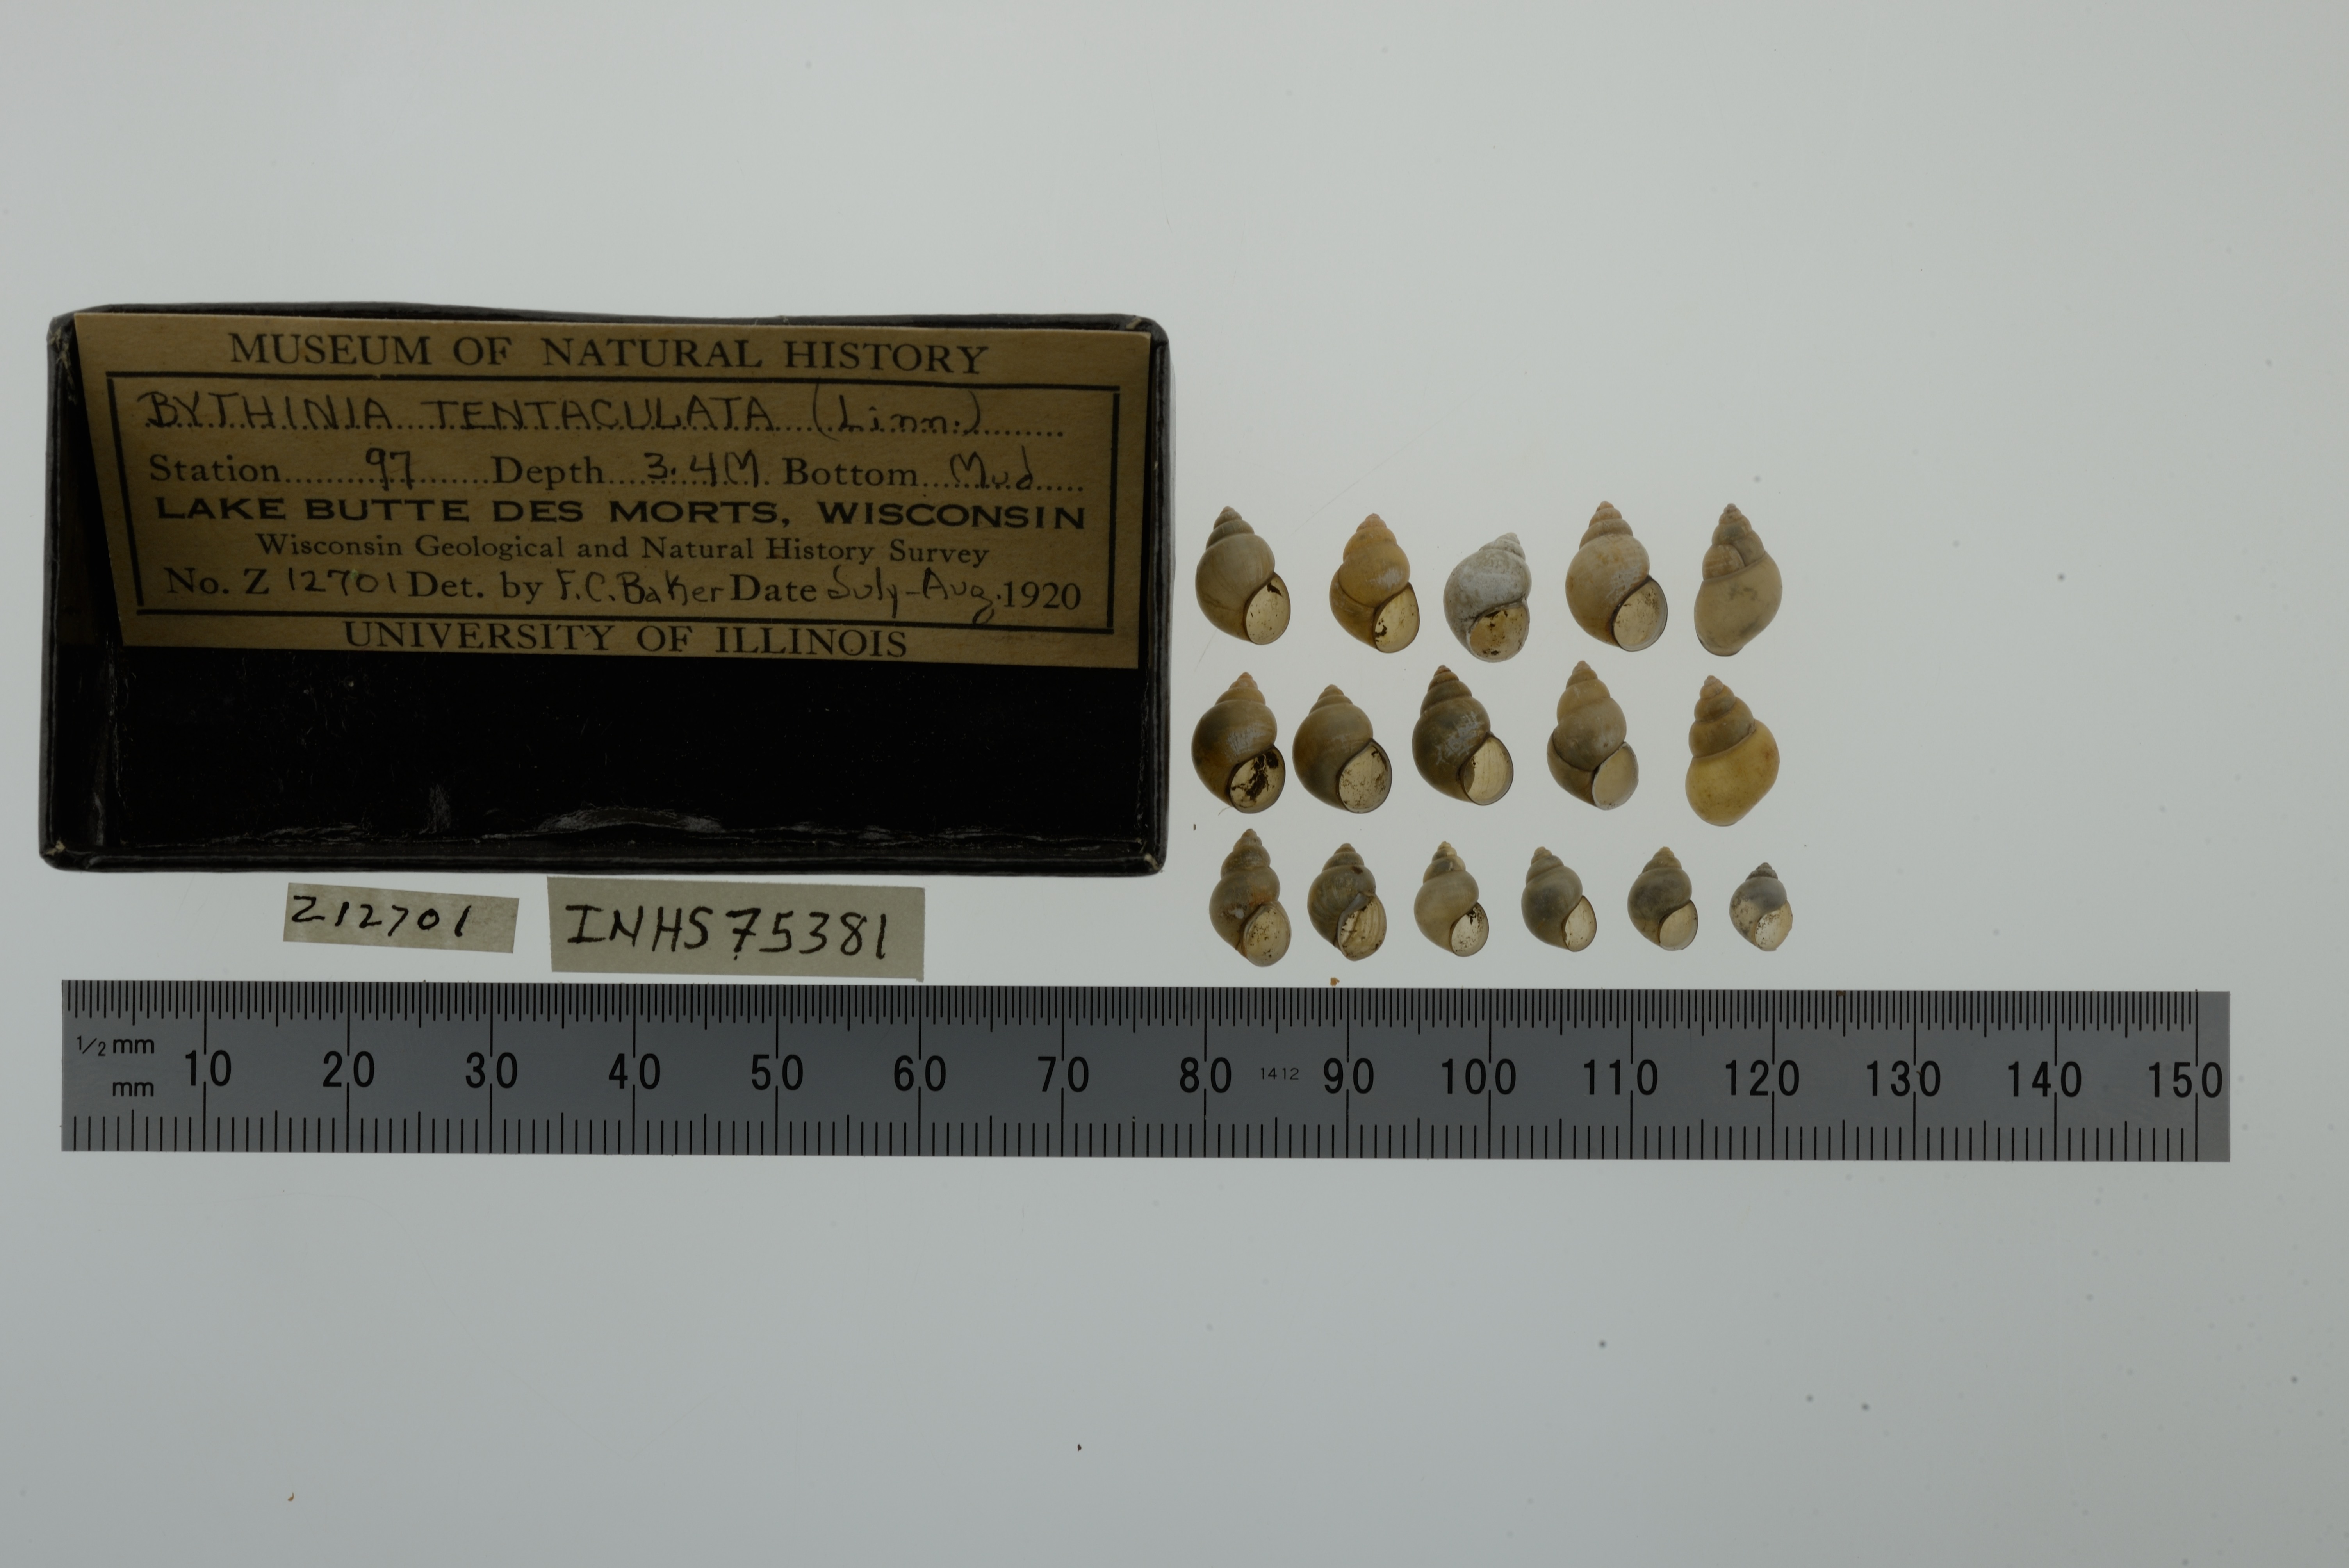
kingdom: Animalia
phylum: Mollusca
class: Gastropoda
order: Littorinimorpha
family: Bithyniidae
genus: Bithynia
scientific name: Bithynia tentaculata
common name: Common bithynia
